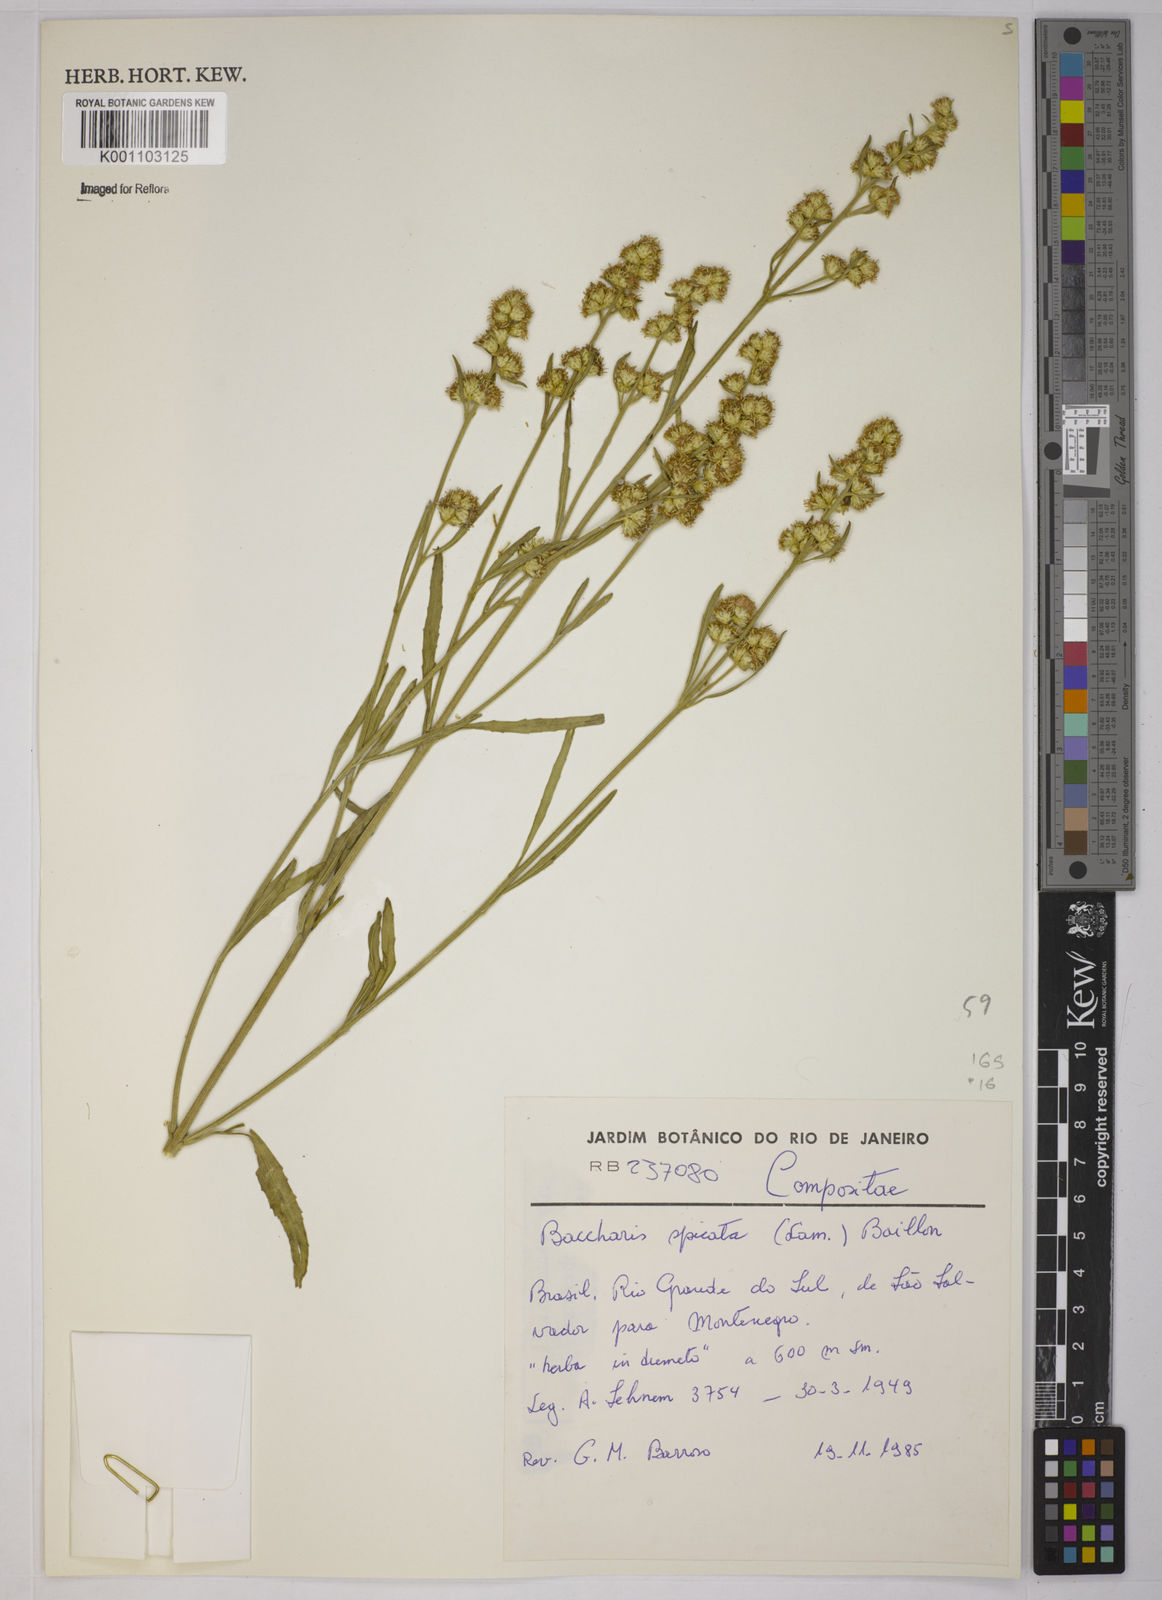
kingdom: Plantae
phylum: Tracheophyta
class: Magnoliopsida
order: Asterales
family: Asteraceae
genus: Baccharis
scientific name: Baccharis hieronymi
